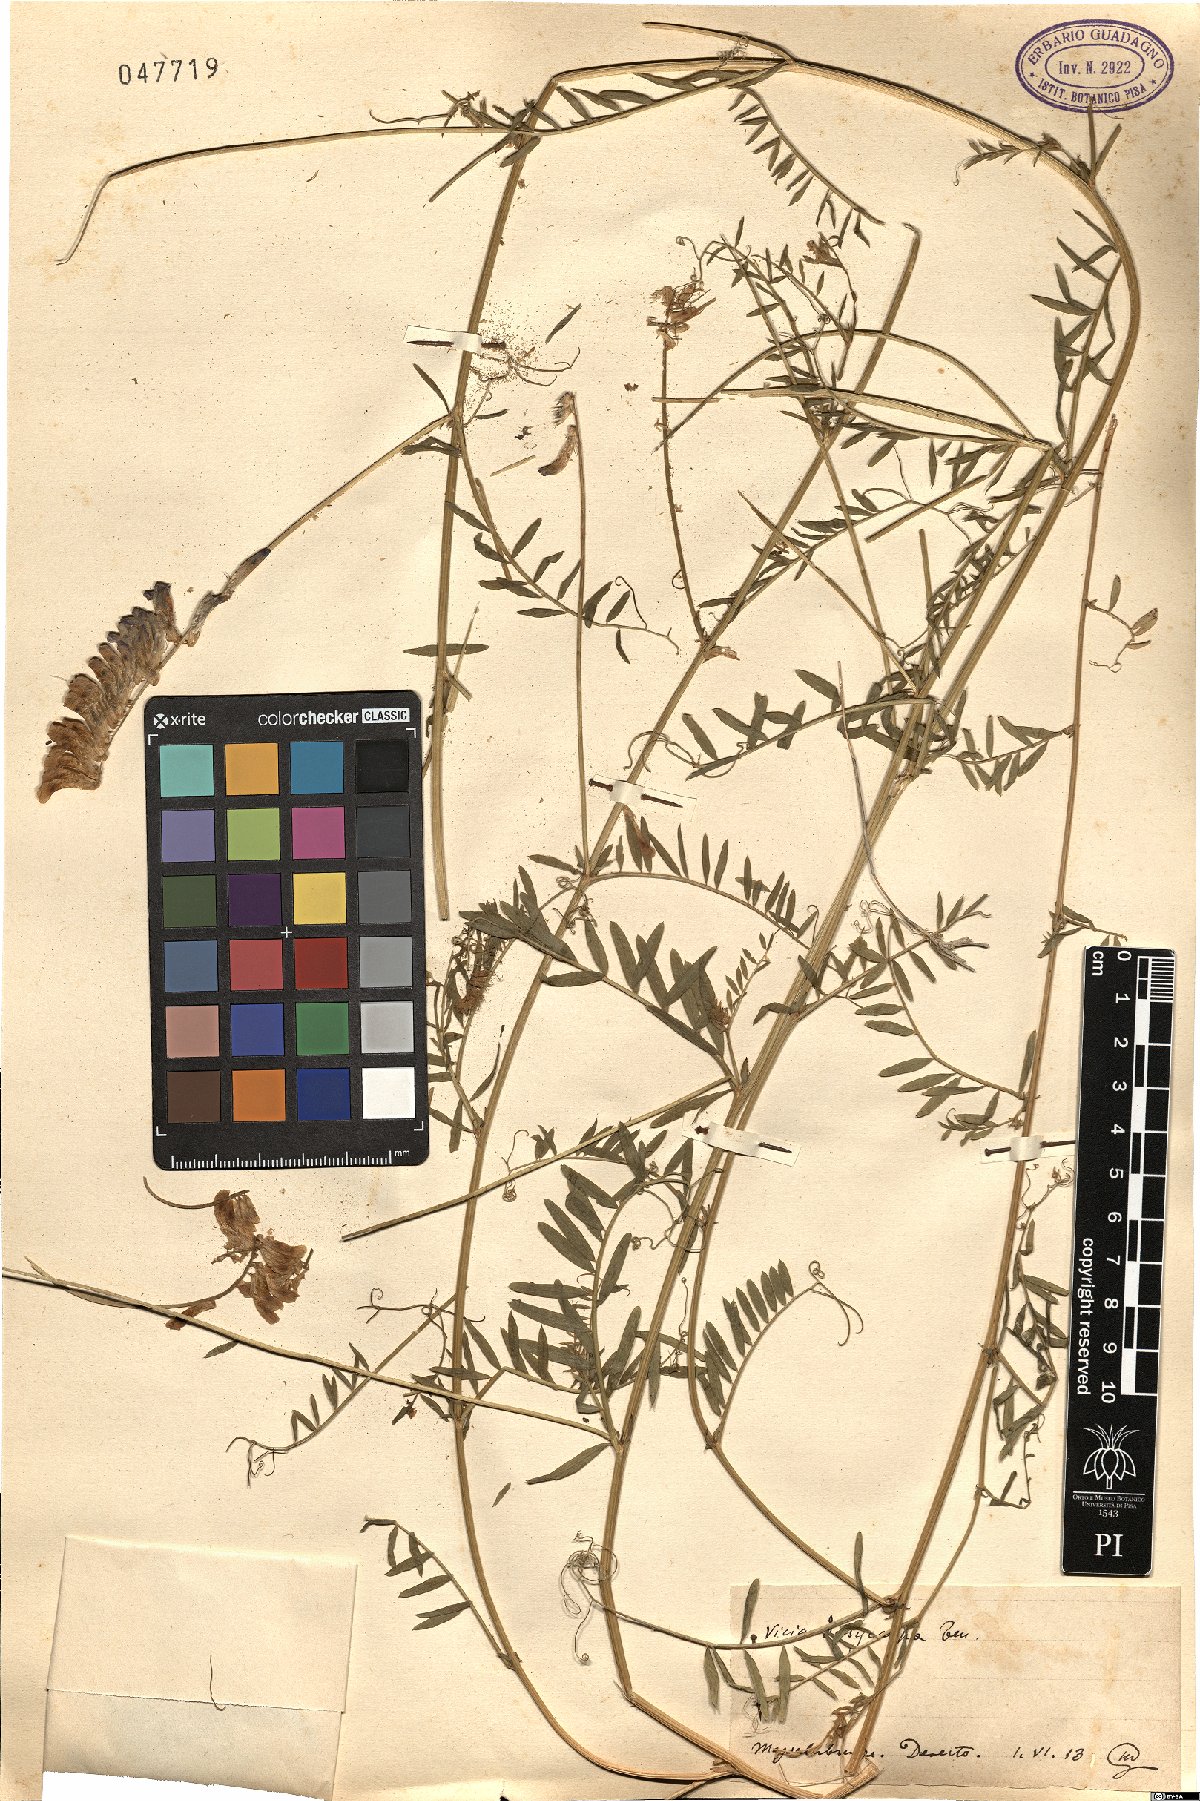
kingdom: Plantae
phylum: Tracheophyta
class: Magnoliopsida
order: Fabales
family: Fabaceae
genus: Vicia
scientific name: Vicia villosa
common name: Fodder vetch
